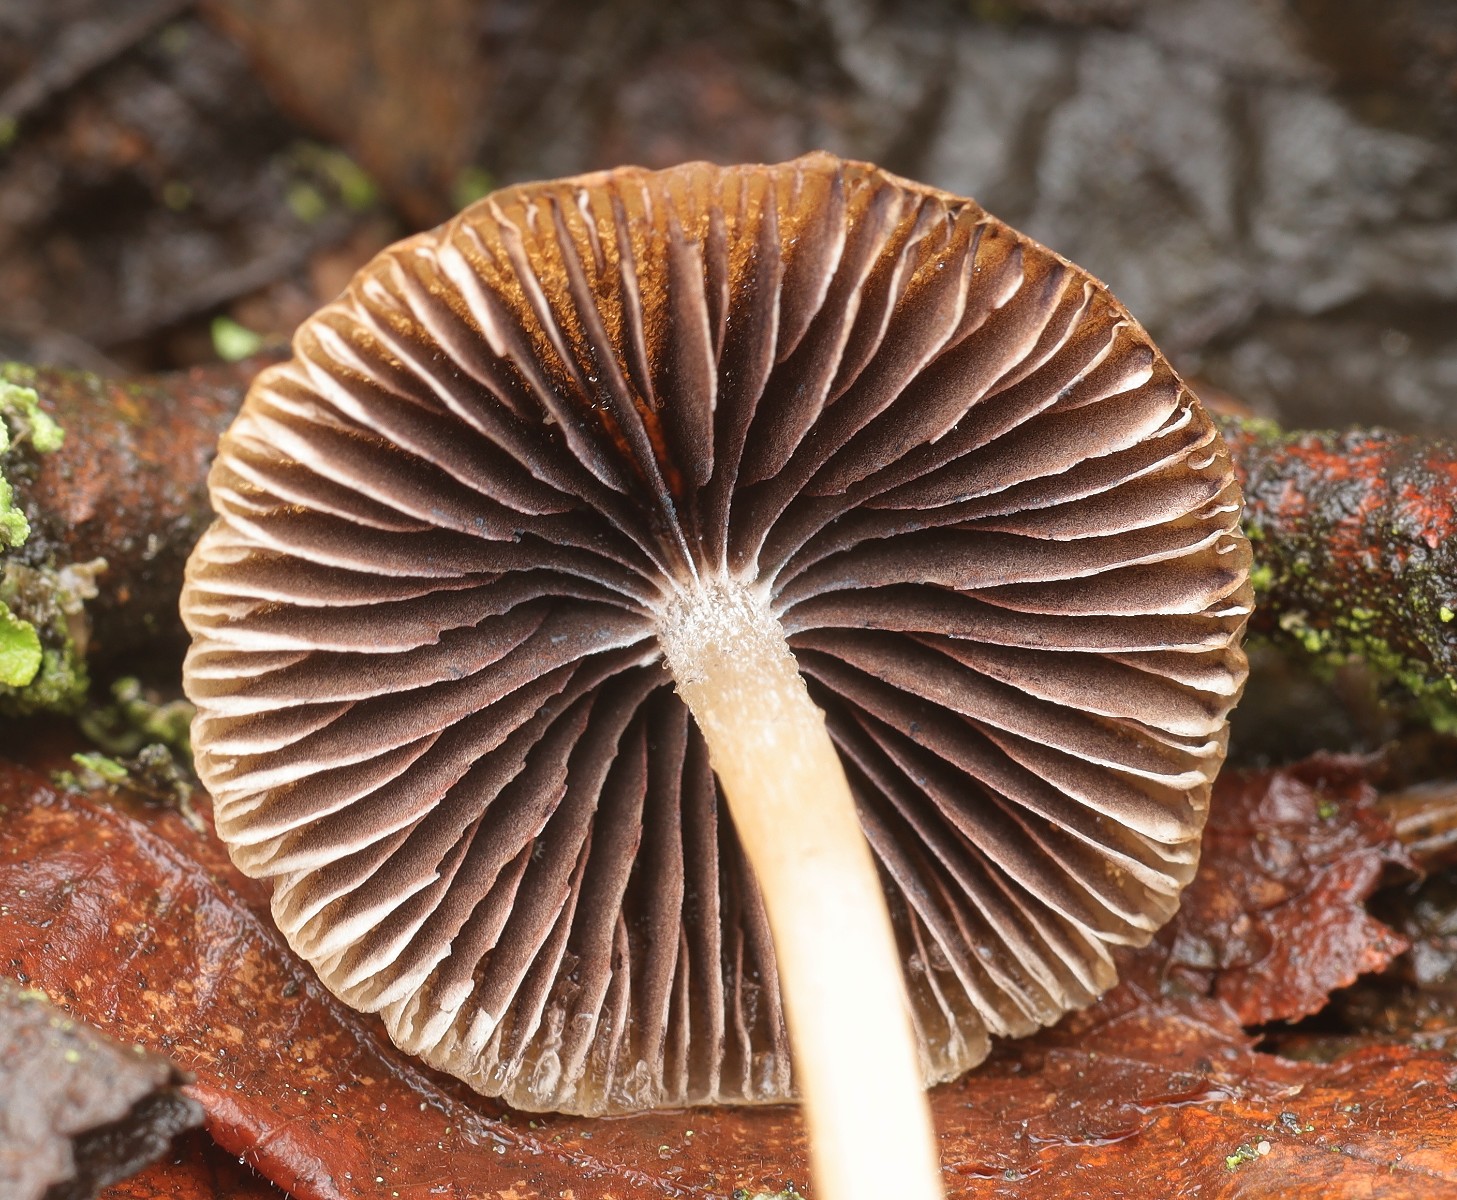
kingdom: Fungi
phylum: Basidiomycota
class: Agaricomycetes
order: Agaricales
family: Psathyrellaceae
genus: Psathyrella
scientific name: Psathyrella
